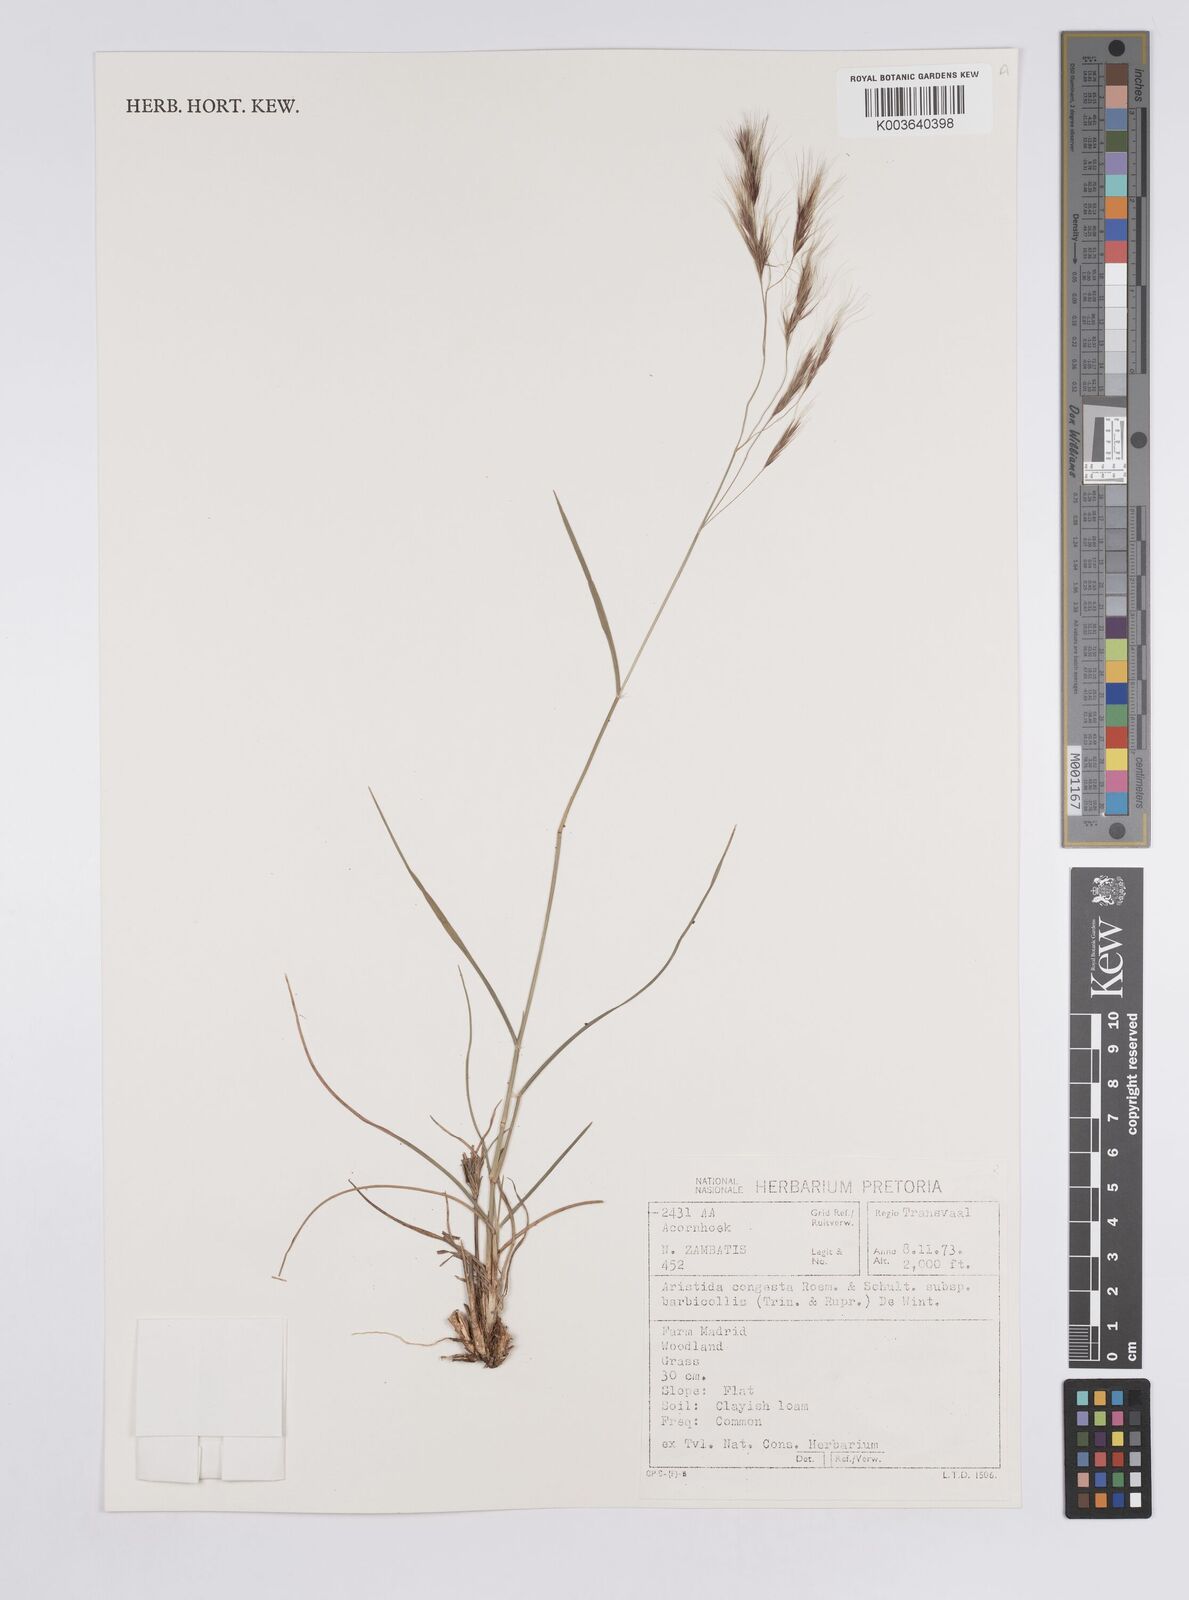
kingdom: Plantae
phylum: Tracheophyta
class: Liliopsida
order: Poales
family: Poaceae
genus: Aristida
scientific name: Aristida barbicollis
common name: Spreading prickle grass
